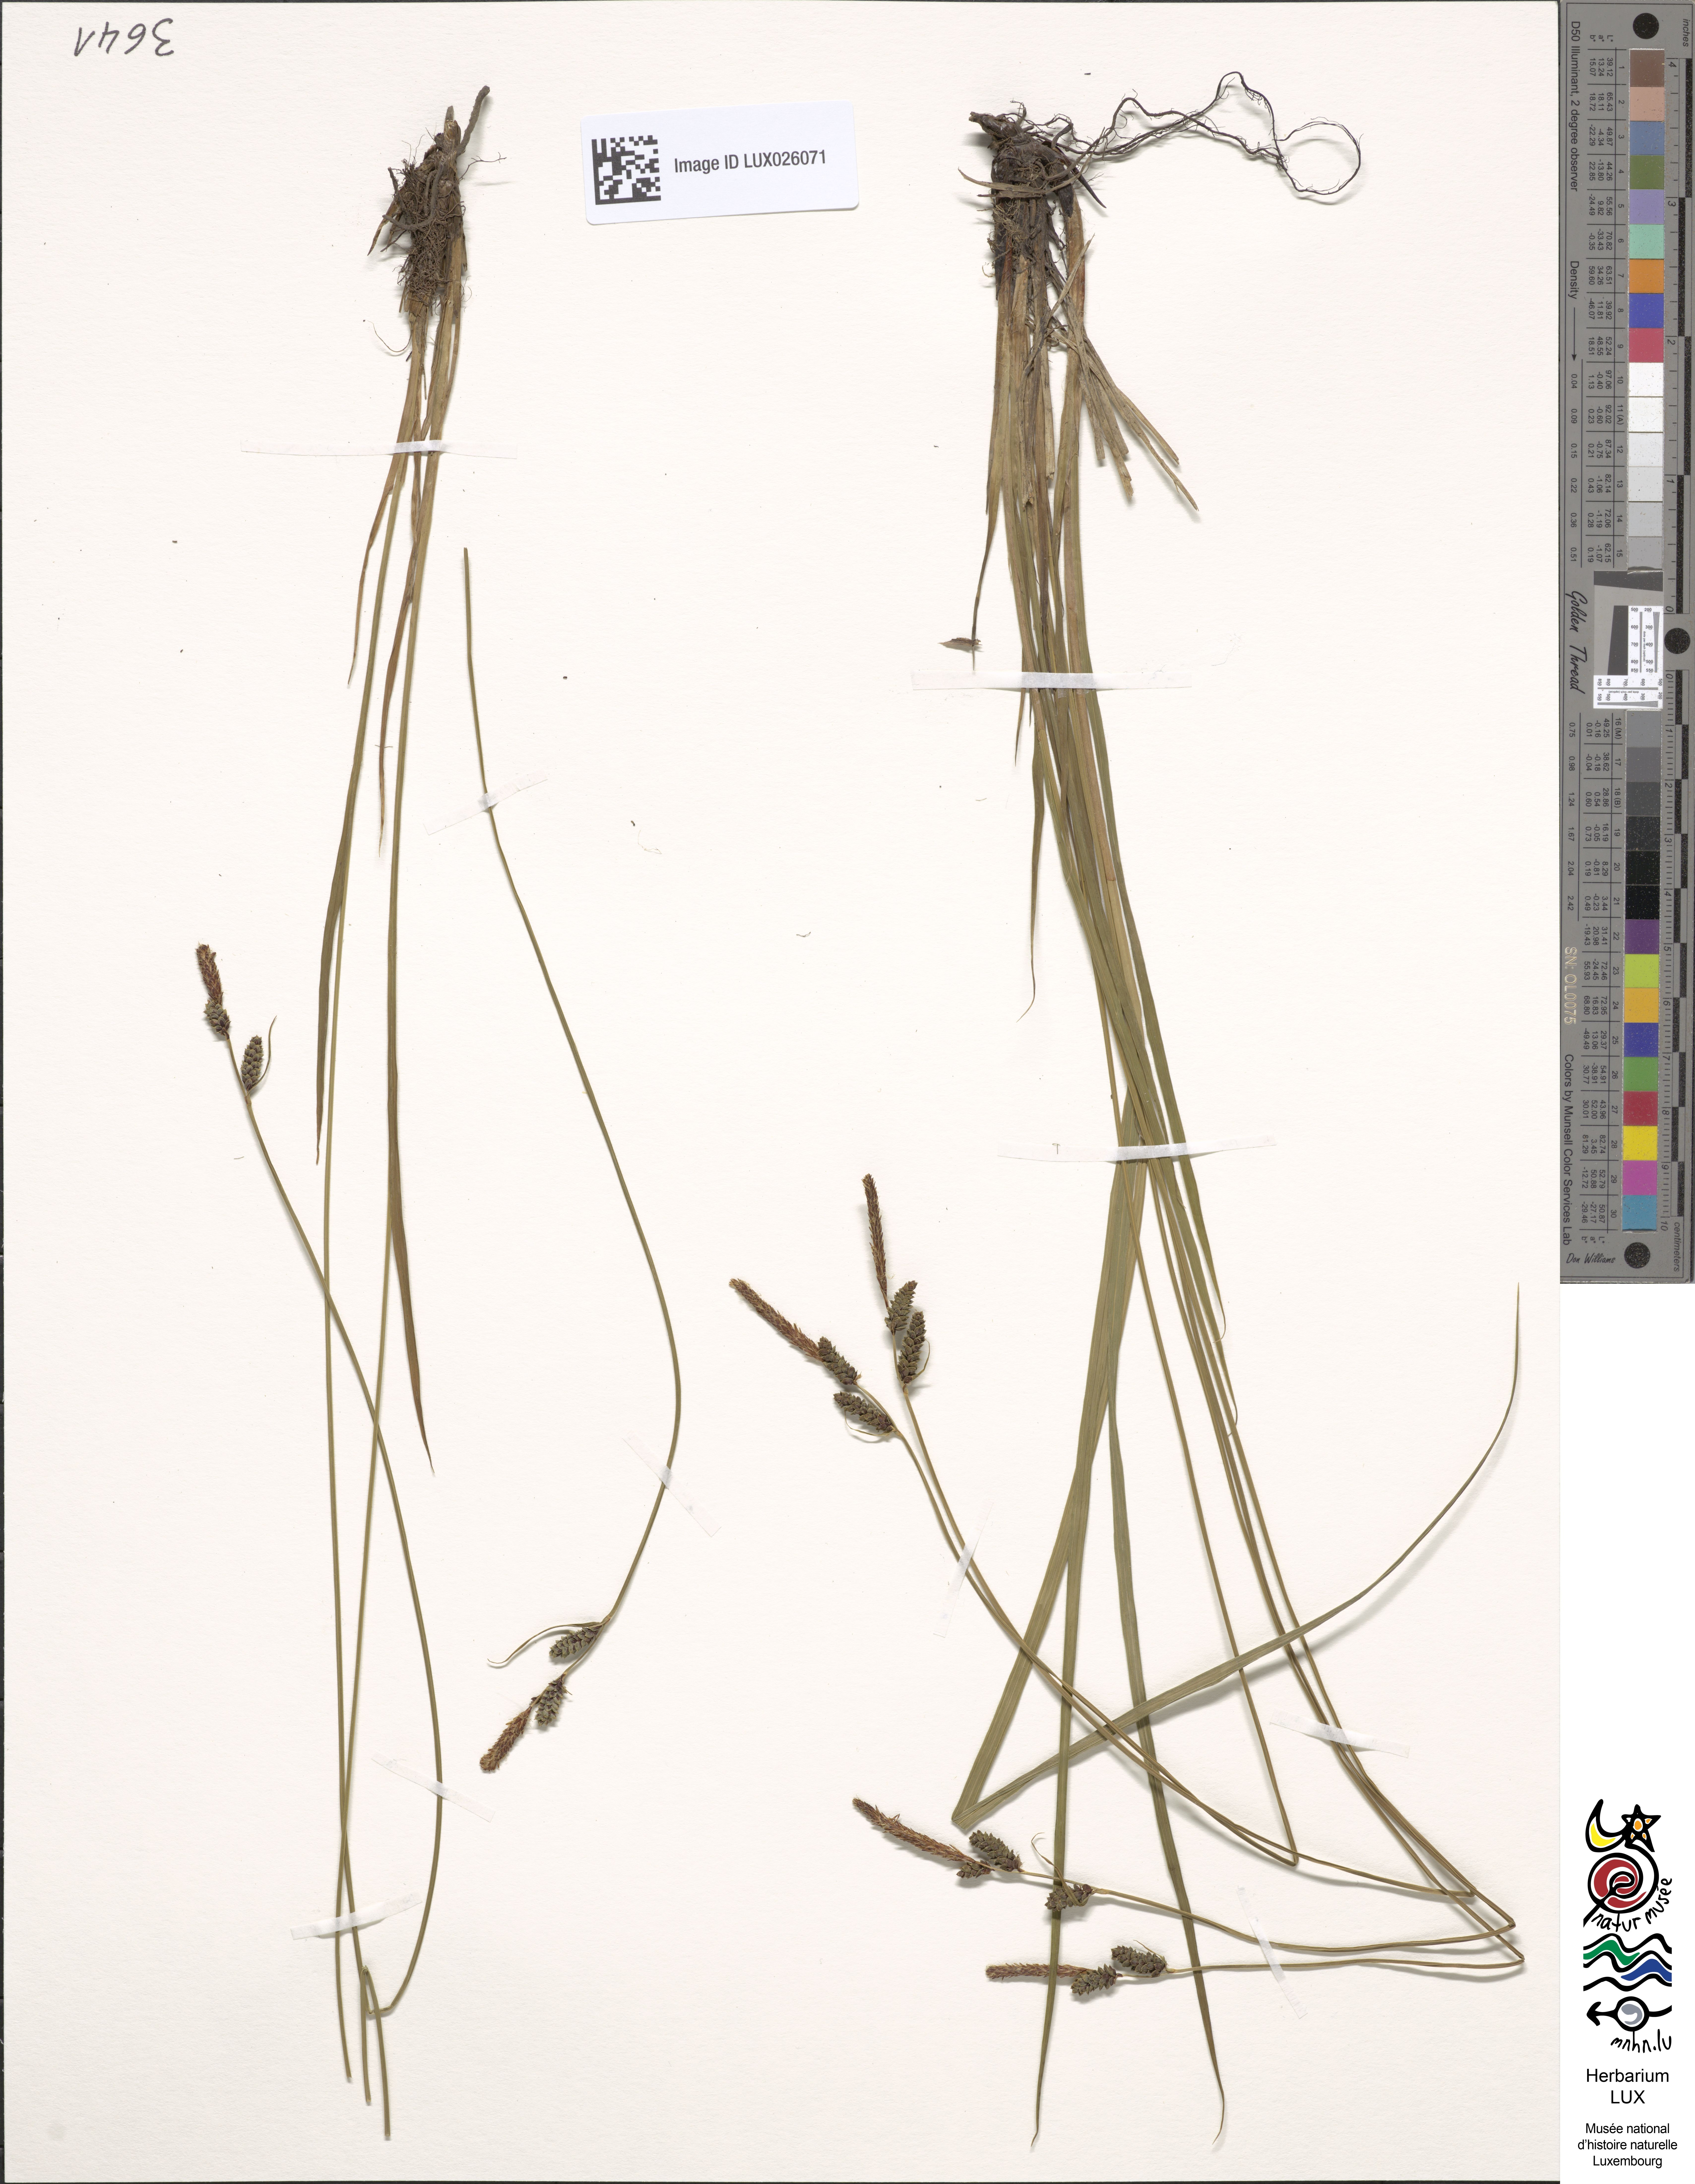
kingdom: Plantae
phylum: Tracheophyta
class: Liliopsida
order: Poales
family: Cyperaceae
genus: Carex
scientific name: Carex cespitosa
